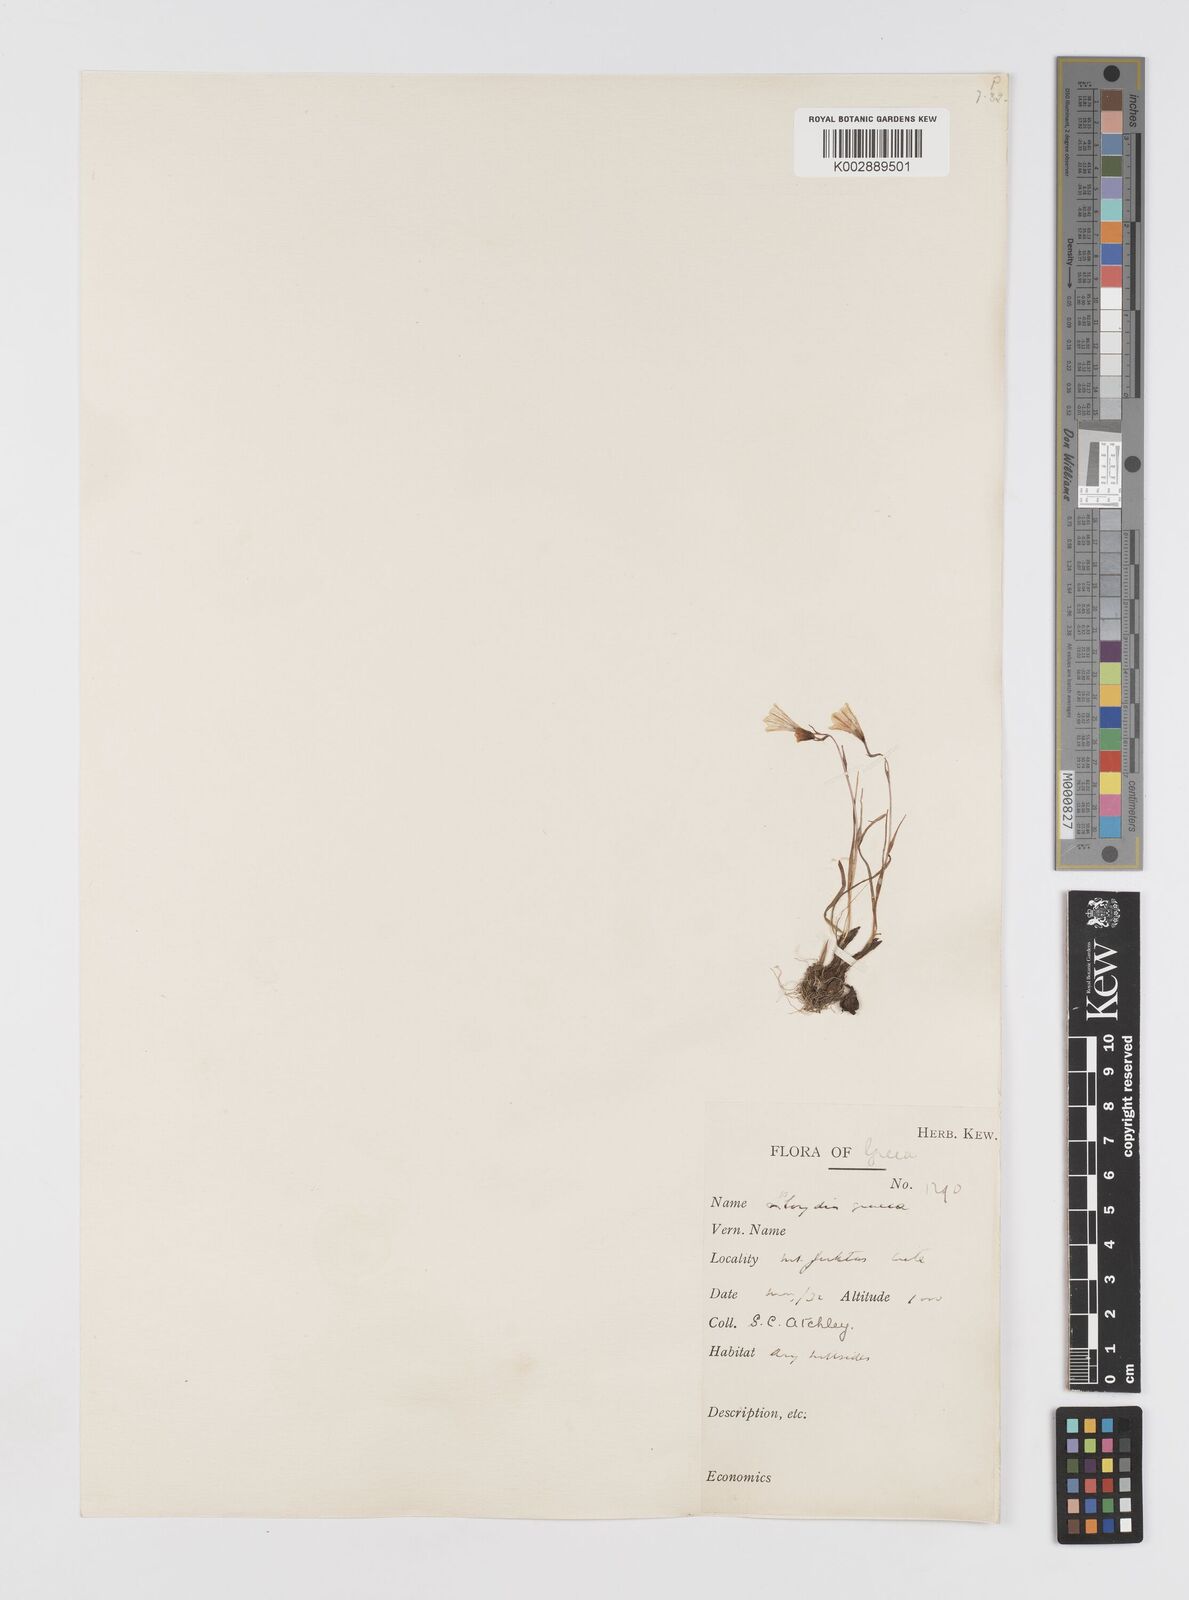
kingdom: Plantae
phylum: Tracheophyta
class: Liliopsida
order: Liliales
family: Liliaceae
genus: Gagea
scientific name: Gagea graeca
